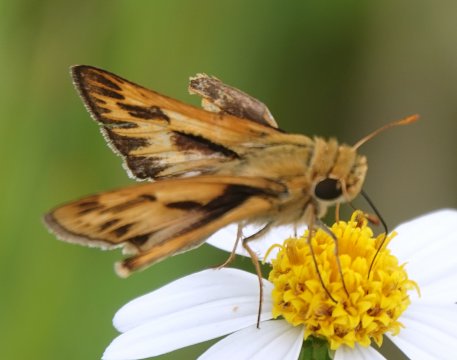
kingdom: Animalia
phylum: Arthropoda
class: Insecta
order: Lepidoptera
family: Hesperiidae
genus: Hylephila
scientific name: Hylephila phyleus
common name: Fiery Skipper
